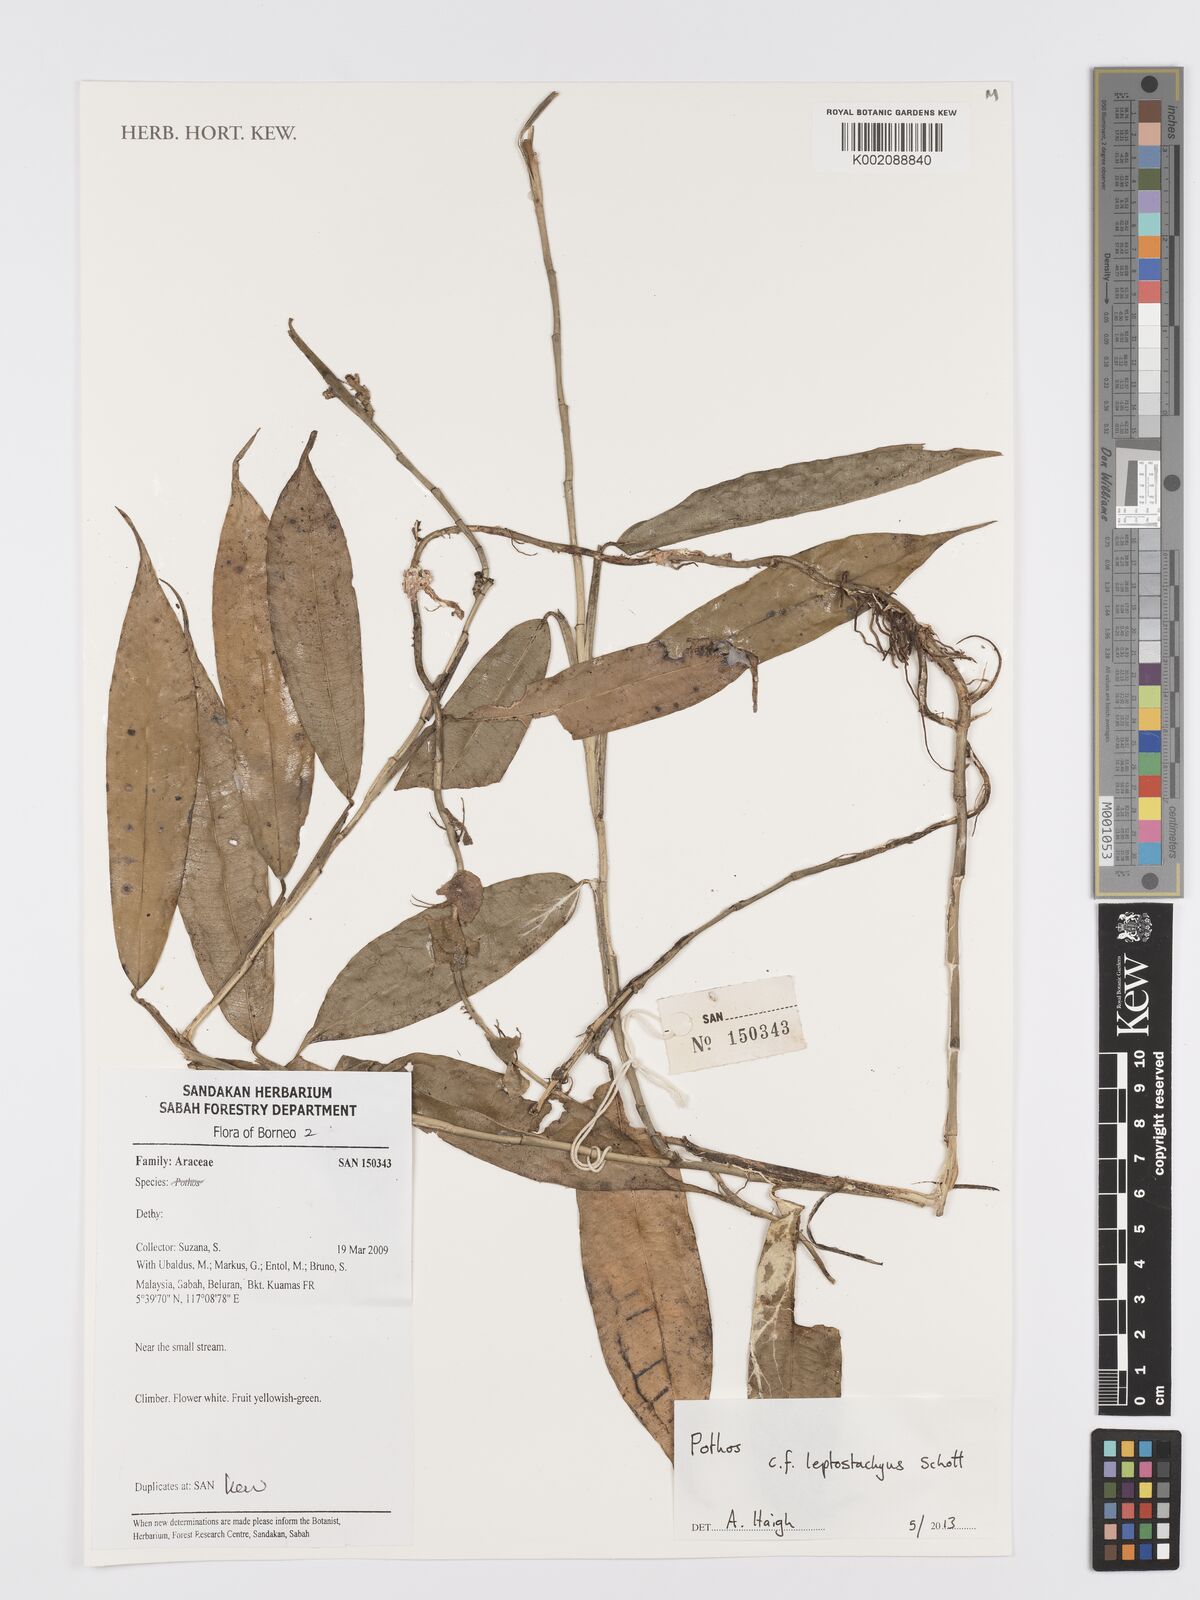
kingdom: Plantae
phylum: Tracheophyta
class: Liliopsida
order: Alismatales
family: Araceae
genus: Pothos
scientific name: Pothos leptostachyus
